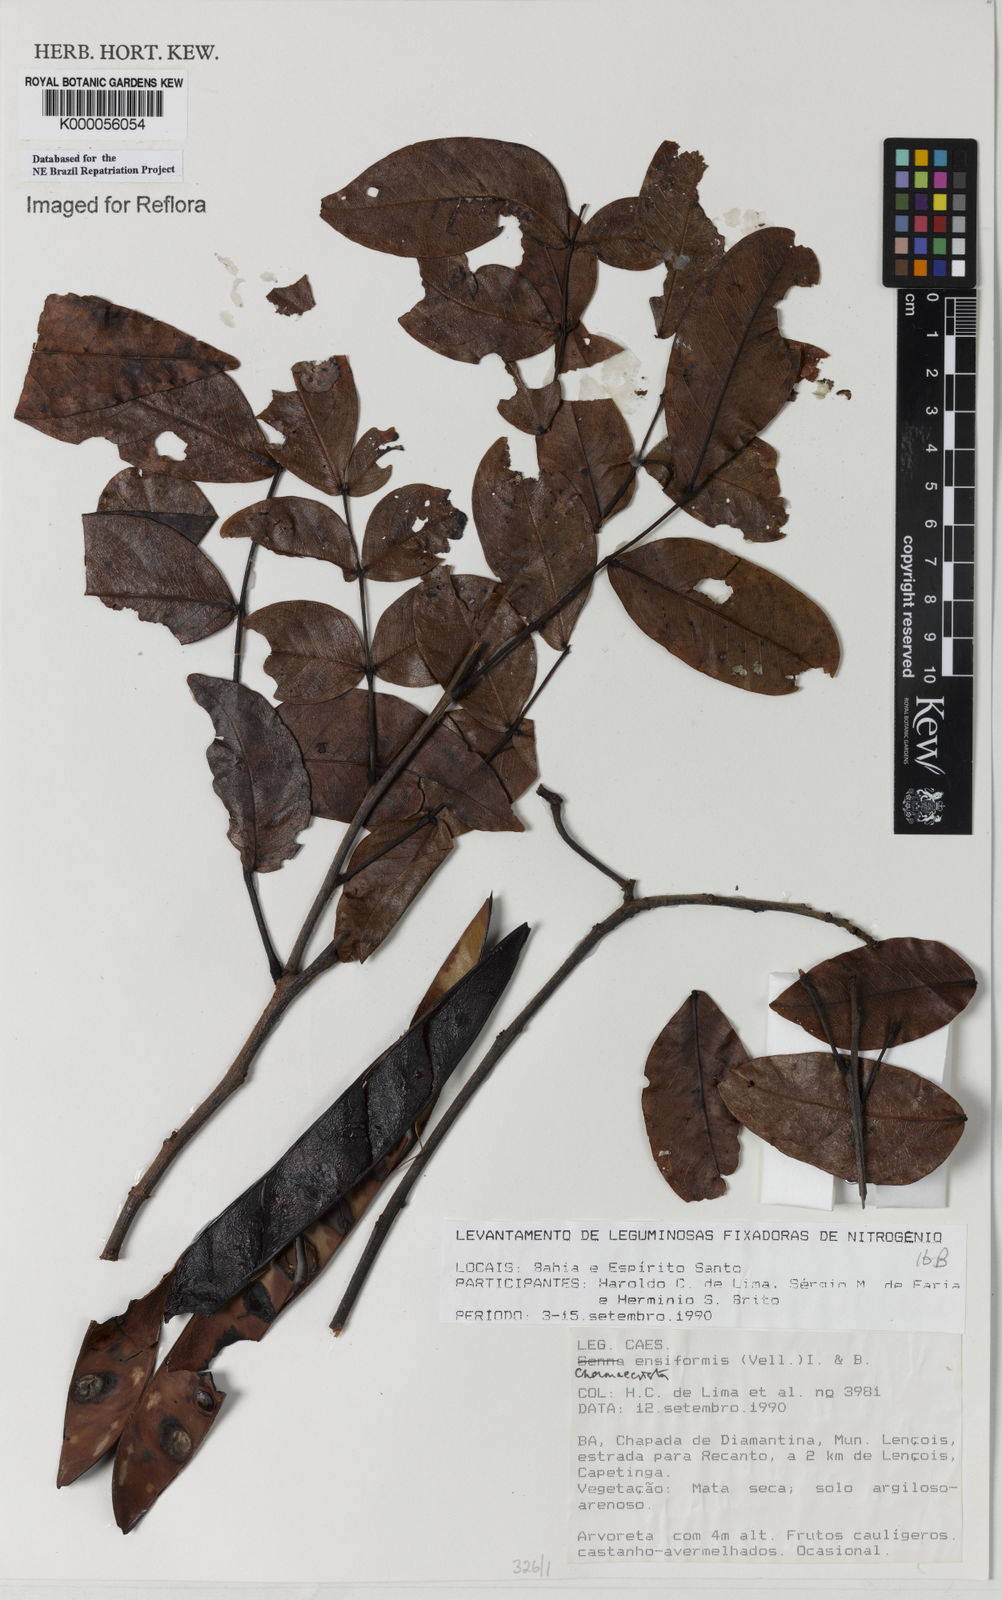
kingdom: Plantae
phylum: Tracheophyta
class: Magnoliopsida
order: Fabales
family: Fabaceae
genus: Chamaecrista
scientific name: Chamaecrista ensiformis
